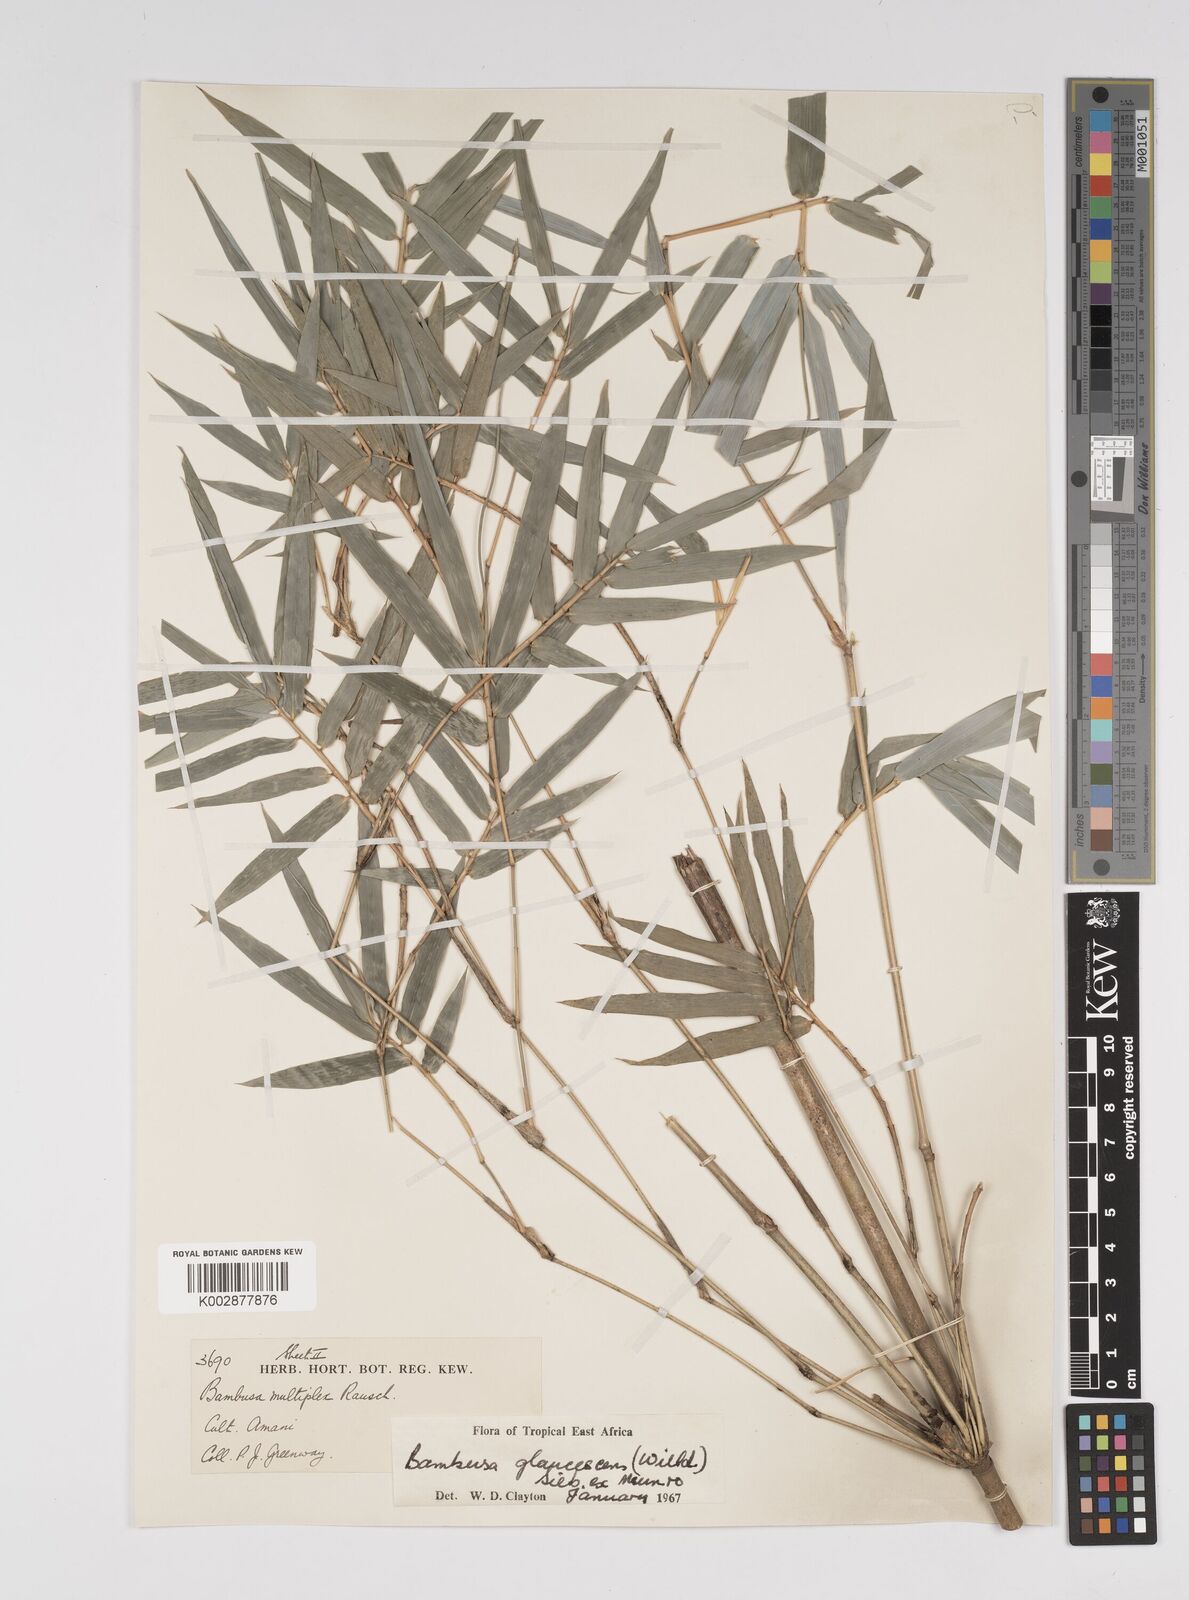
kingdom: Plantae
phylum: Tracheophyta
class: Liliopsida
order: Poales
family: Poaceae
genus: Bambusa
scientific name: Bambusa multiplex
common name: Hedge bamboo
